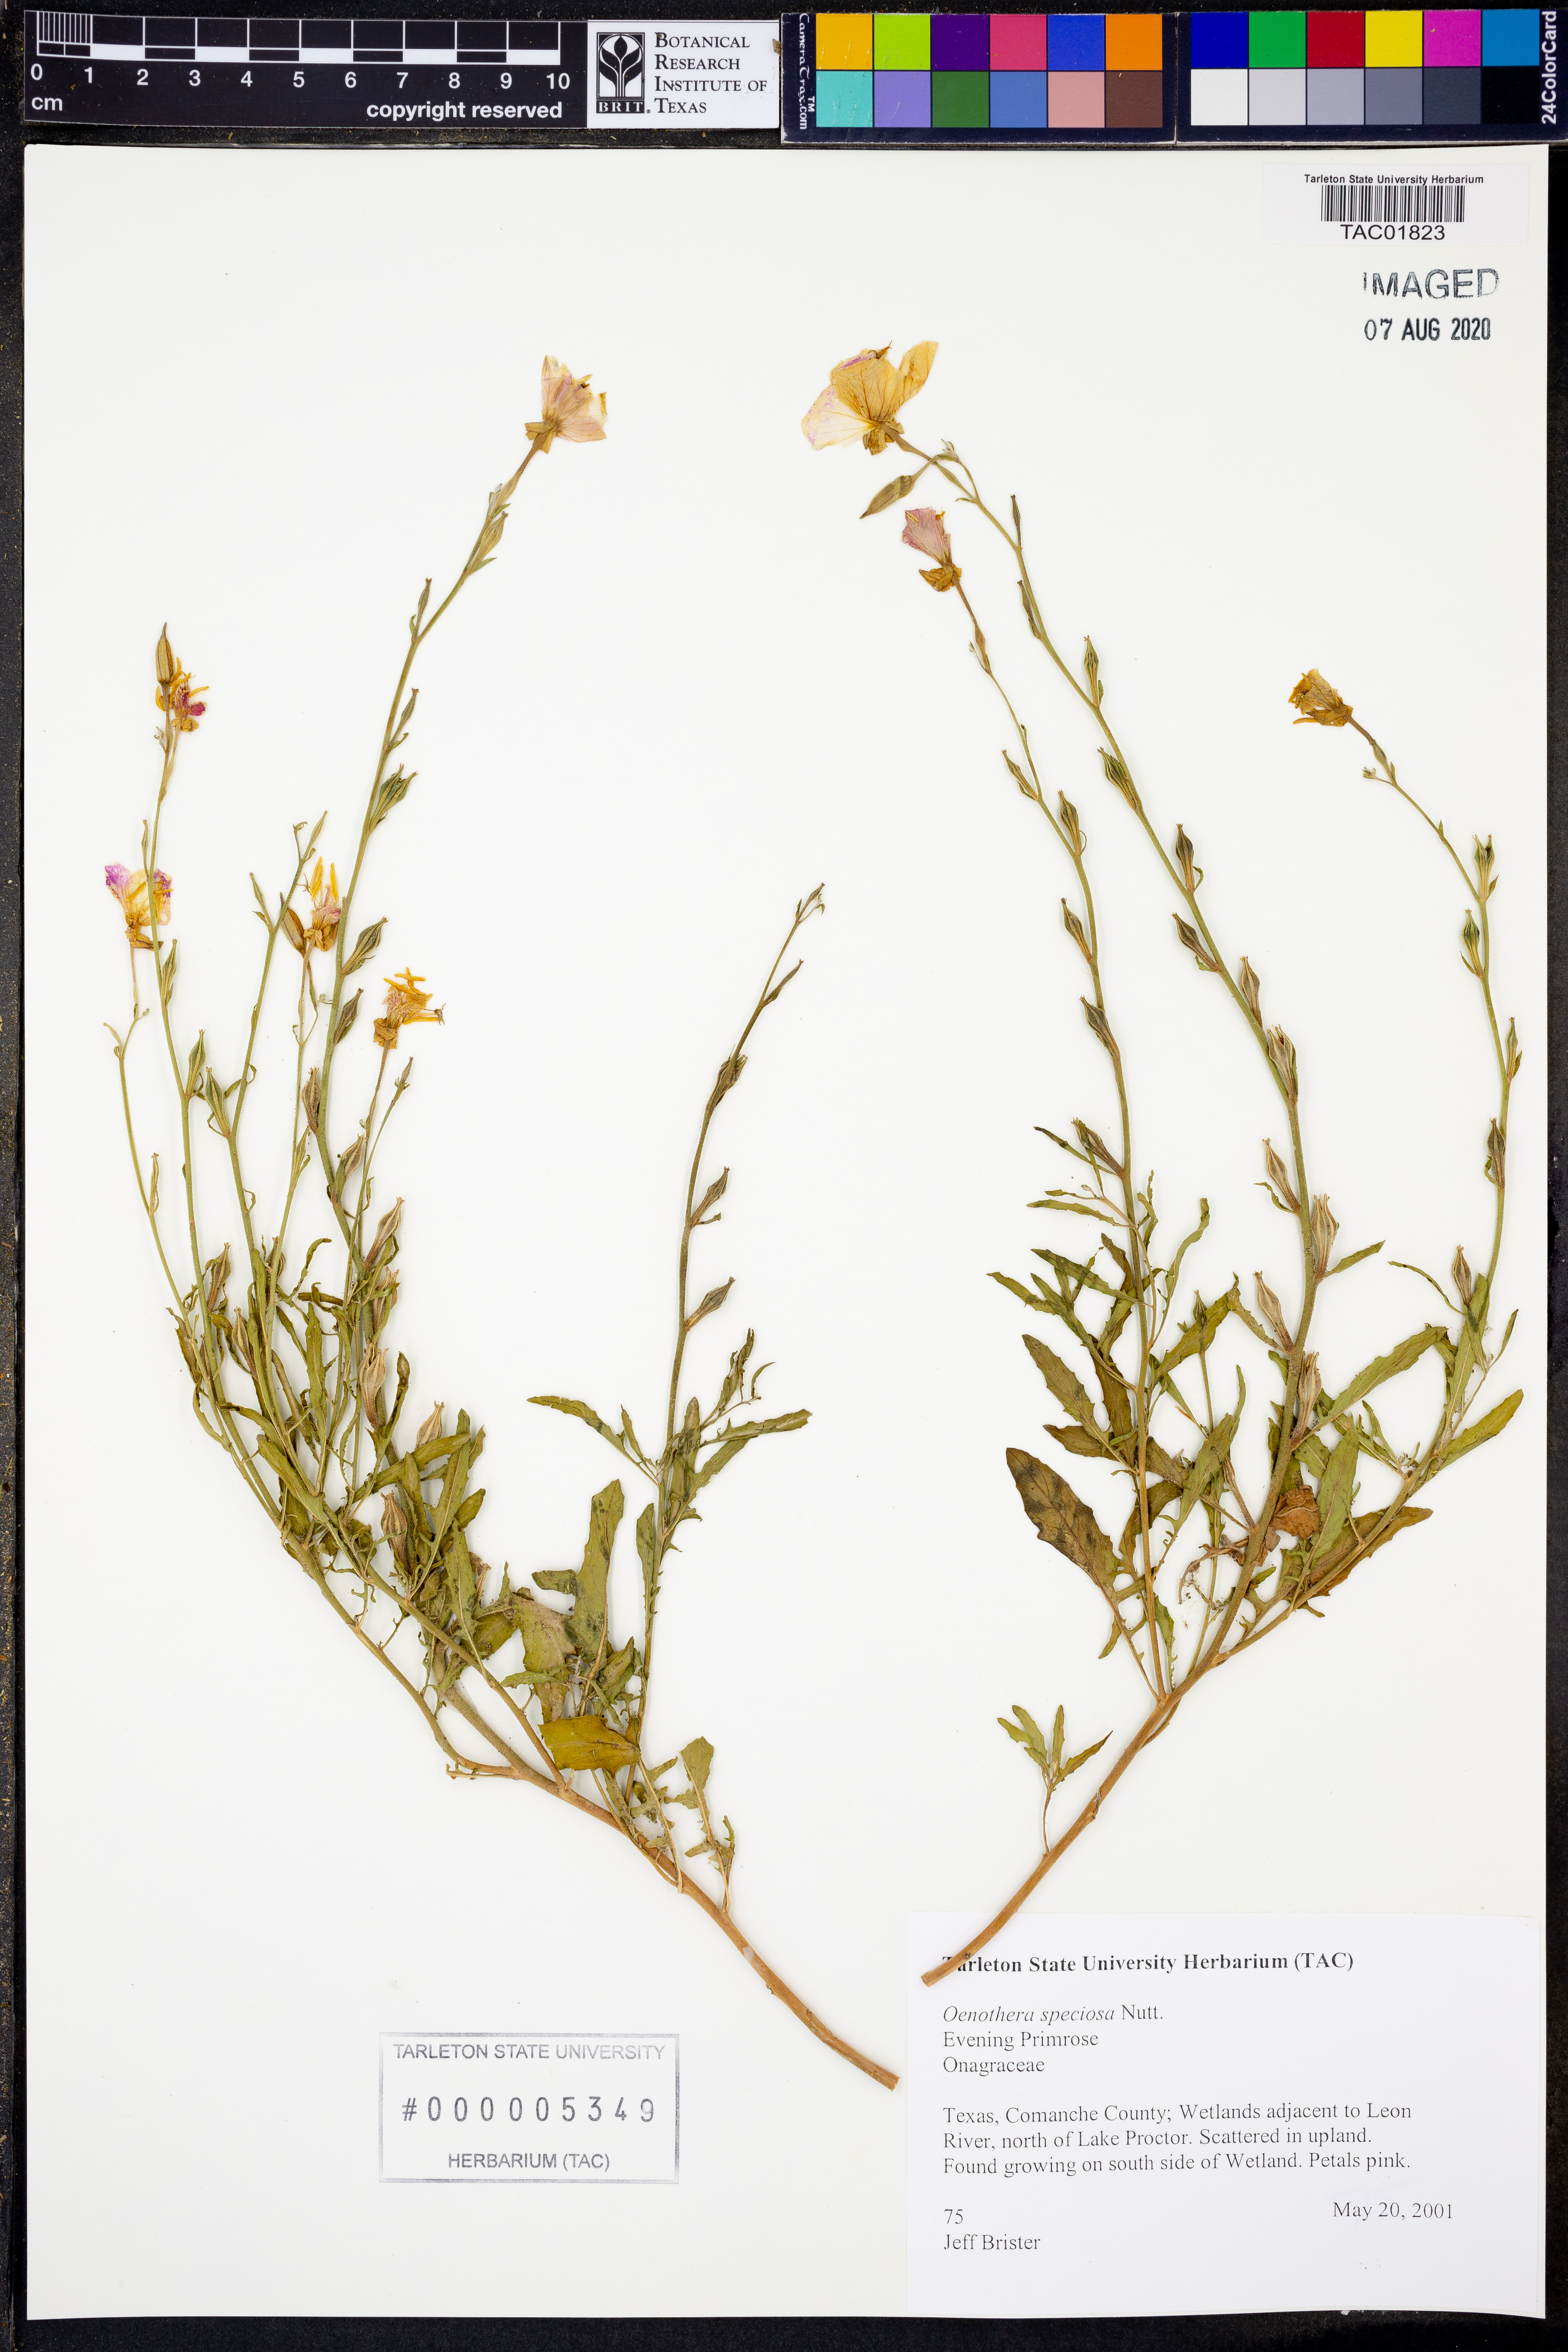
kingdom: Plantae
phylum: Tracheophyta
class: Magnoliopsida
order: Myrtales
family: Onagraceae
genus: Oenothera
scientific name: Oenothera speciosa
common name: White evening-primrose
